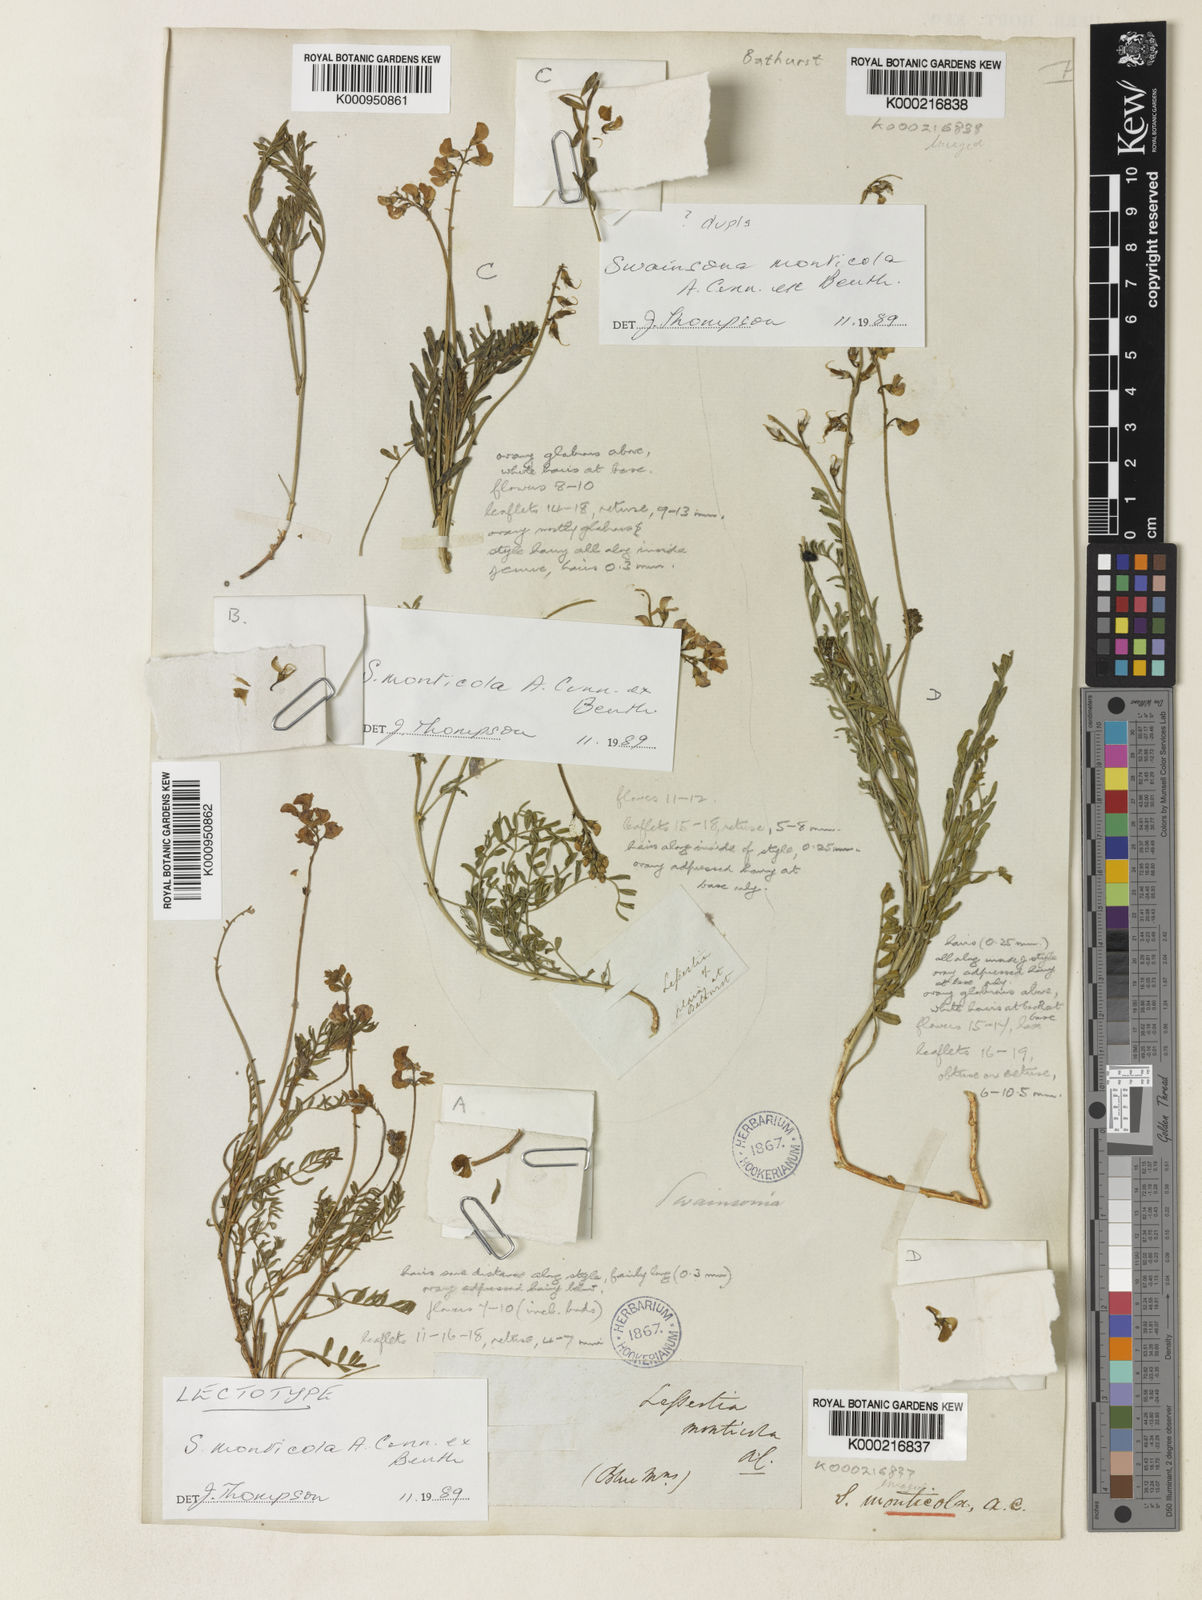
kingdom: Plantae
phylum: Tracheophyta
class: Magnoliopsida
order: Fabales
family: Fabaceae
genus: Swainsona
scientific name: Swainsona monticola
